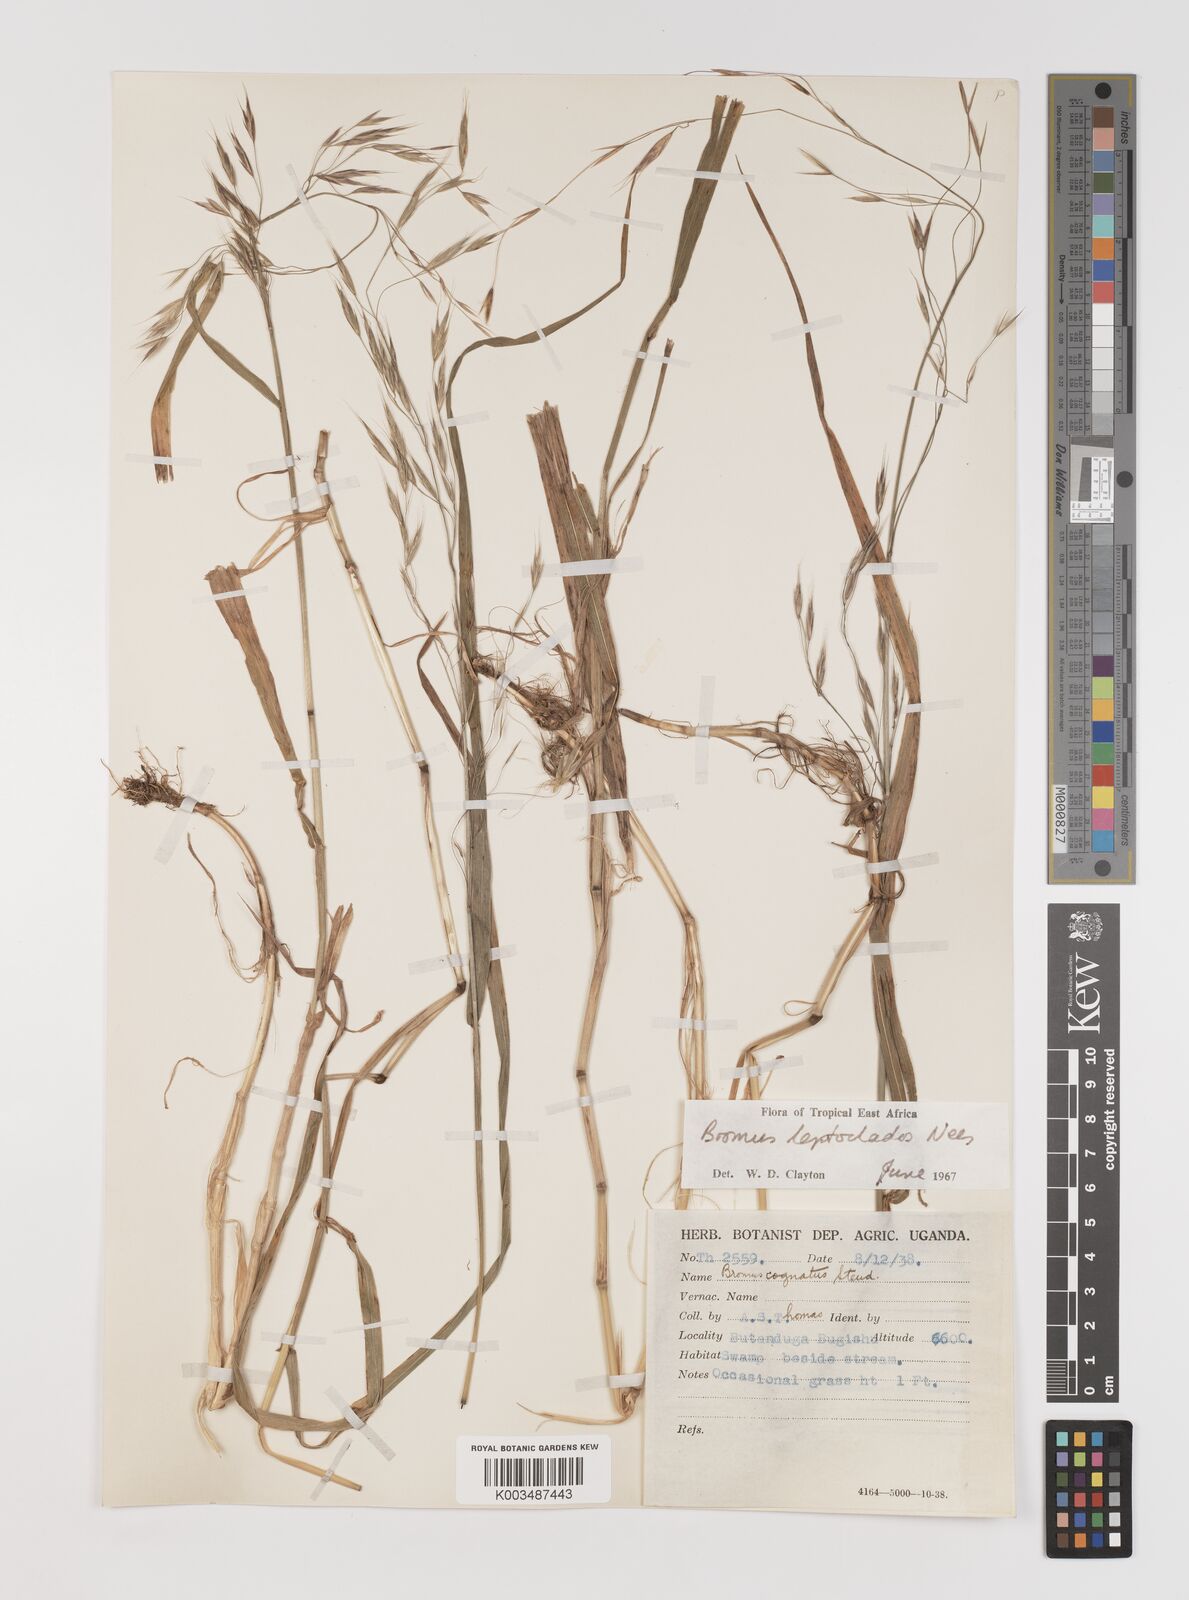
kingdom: Plantae
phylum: Tracheophyta
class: Liliopsida
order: Poales
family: Poaceae
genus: Bromus
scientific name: Bromus leptoclados
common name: Mountain bromegrass
